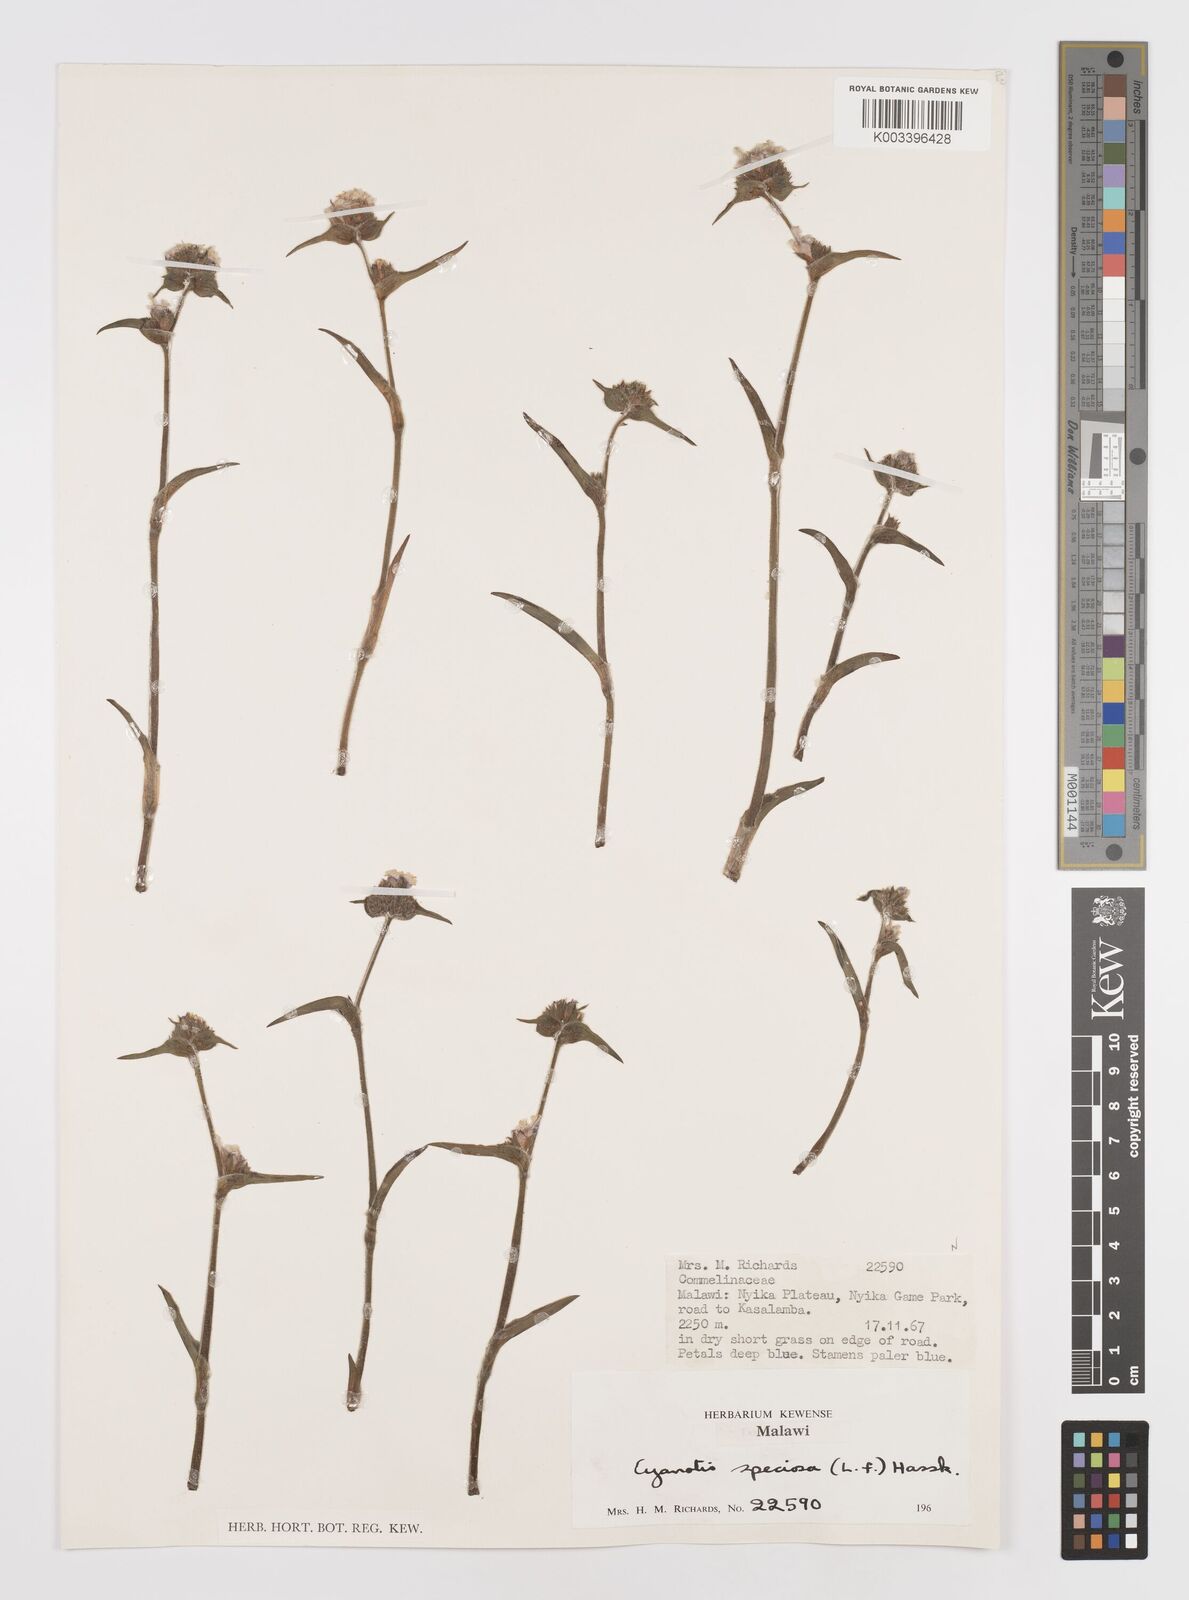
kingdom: Plantae
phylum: Tracheophyta
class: Liliopsida
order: Commelinales
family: Commelinaceae
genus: Cyanotis
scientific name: Cyanotis speciosa
